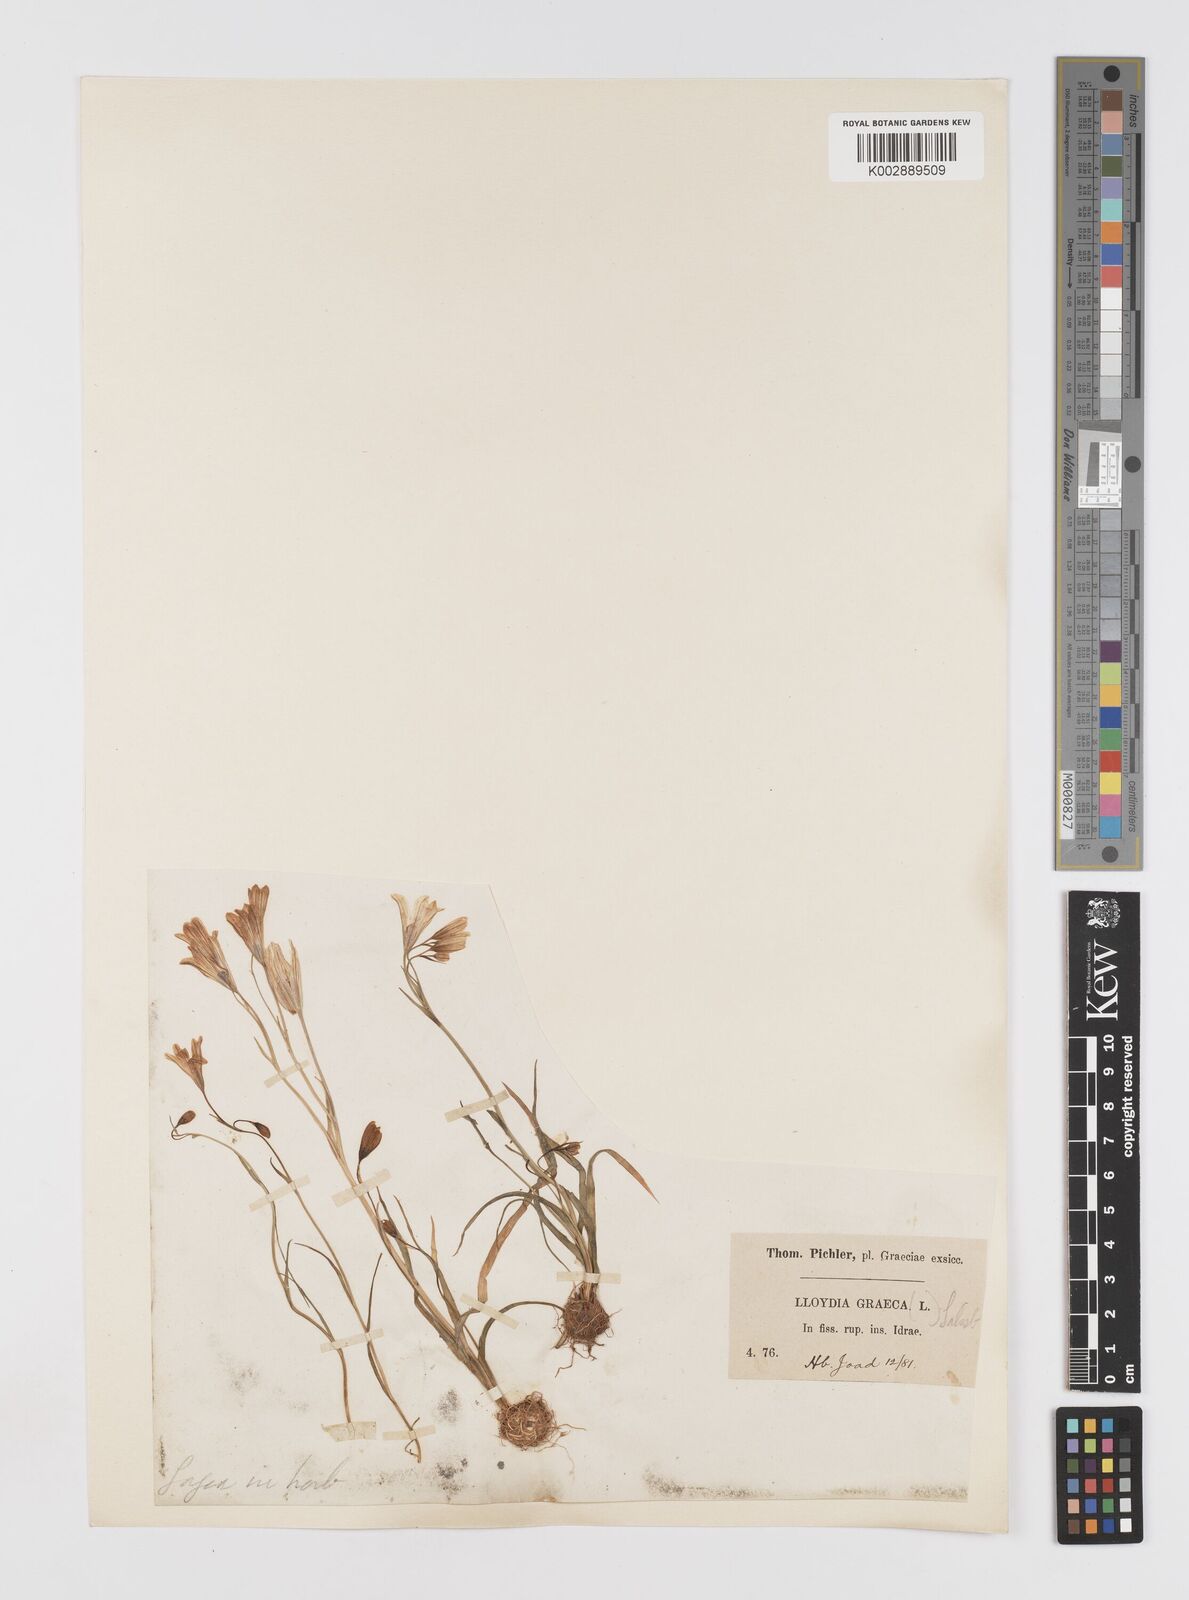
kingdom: Plantae
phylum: Tracheophyta
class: Liliopsida
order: Liliales
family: Liliaceae
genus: Gagea
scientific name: Gagea graeca
